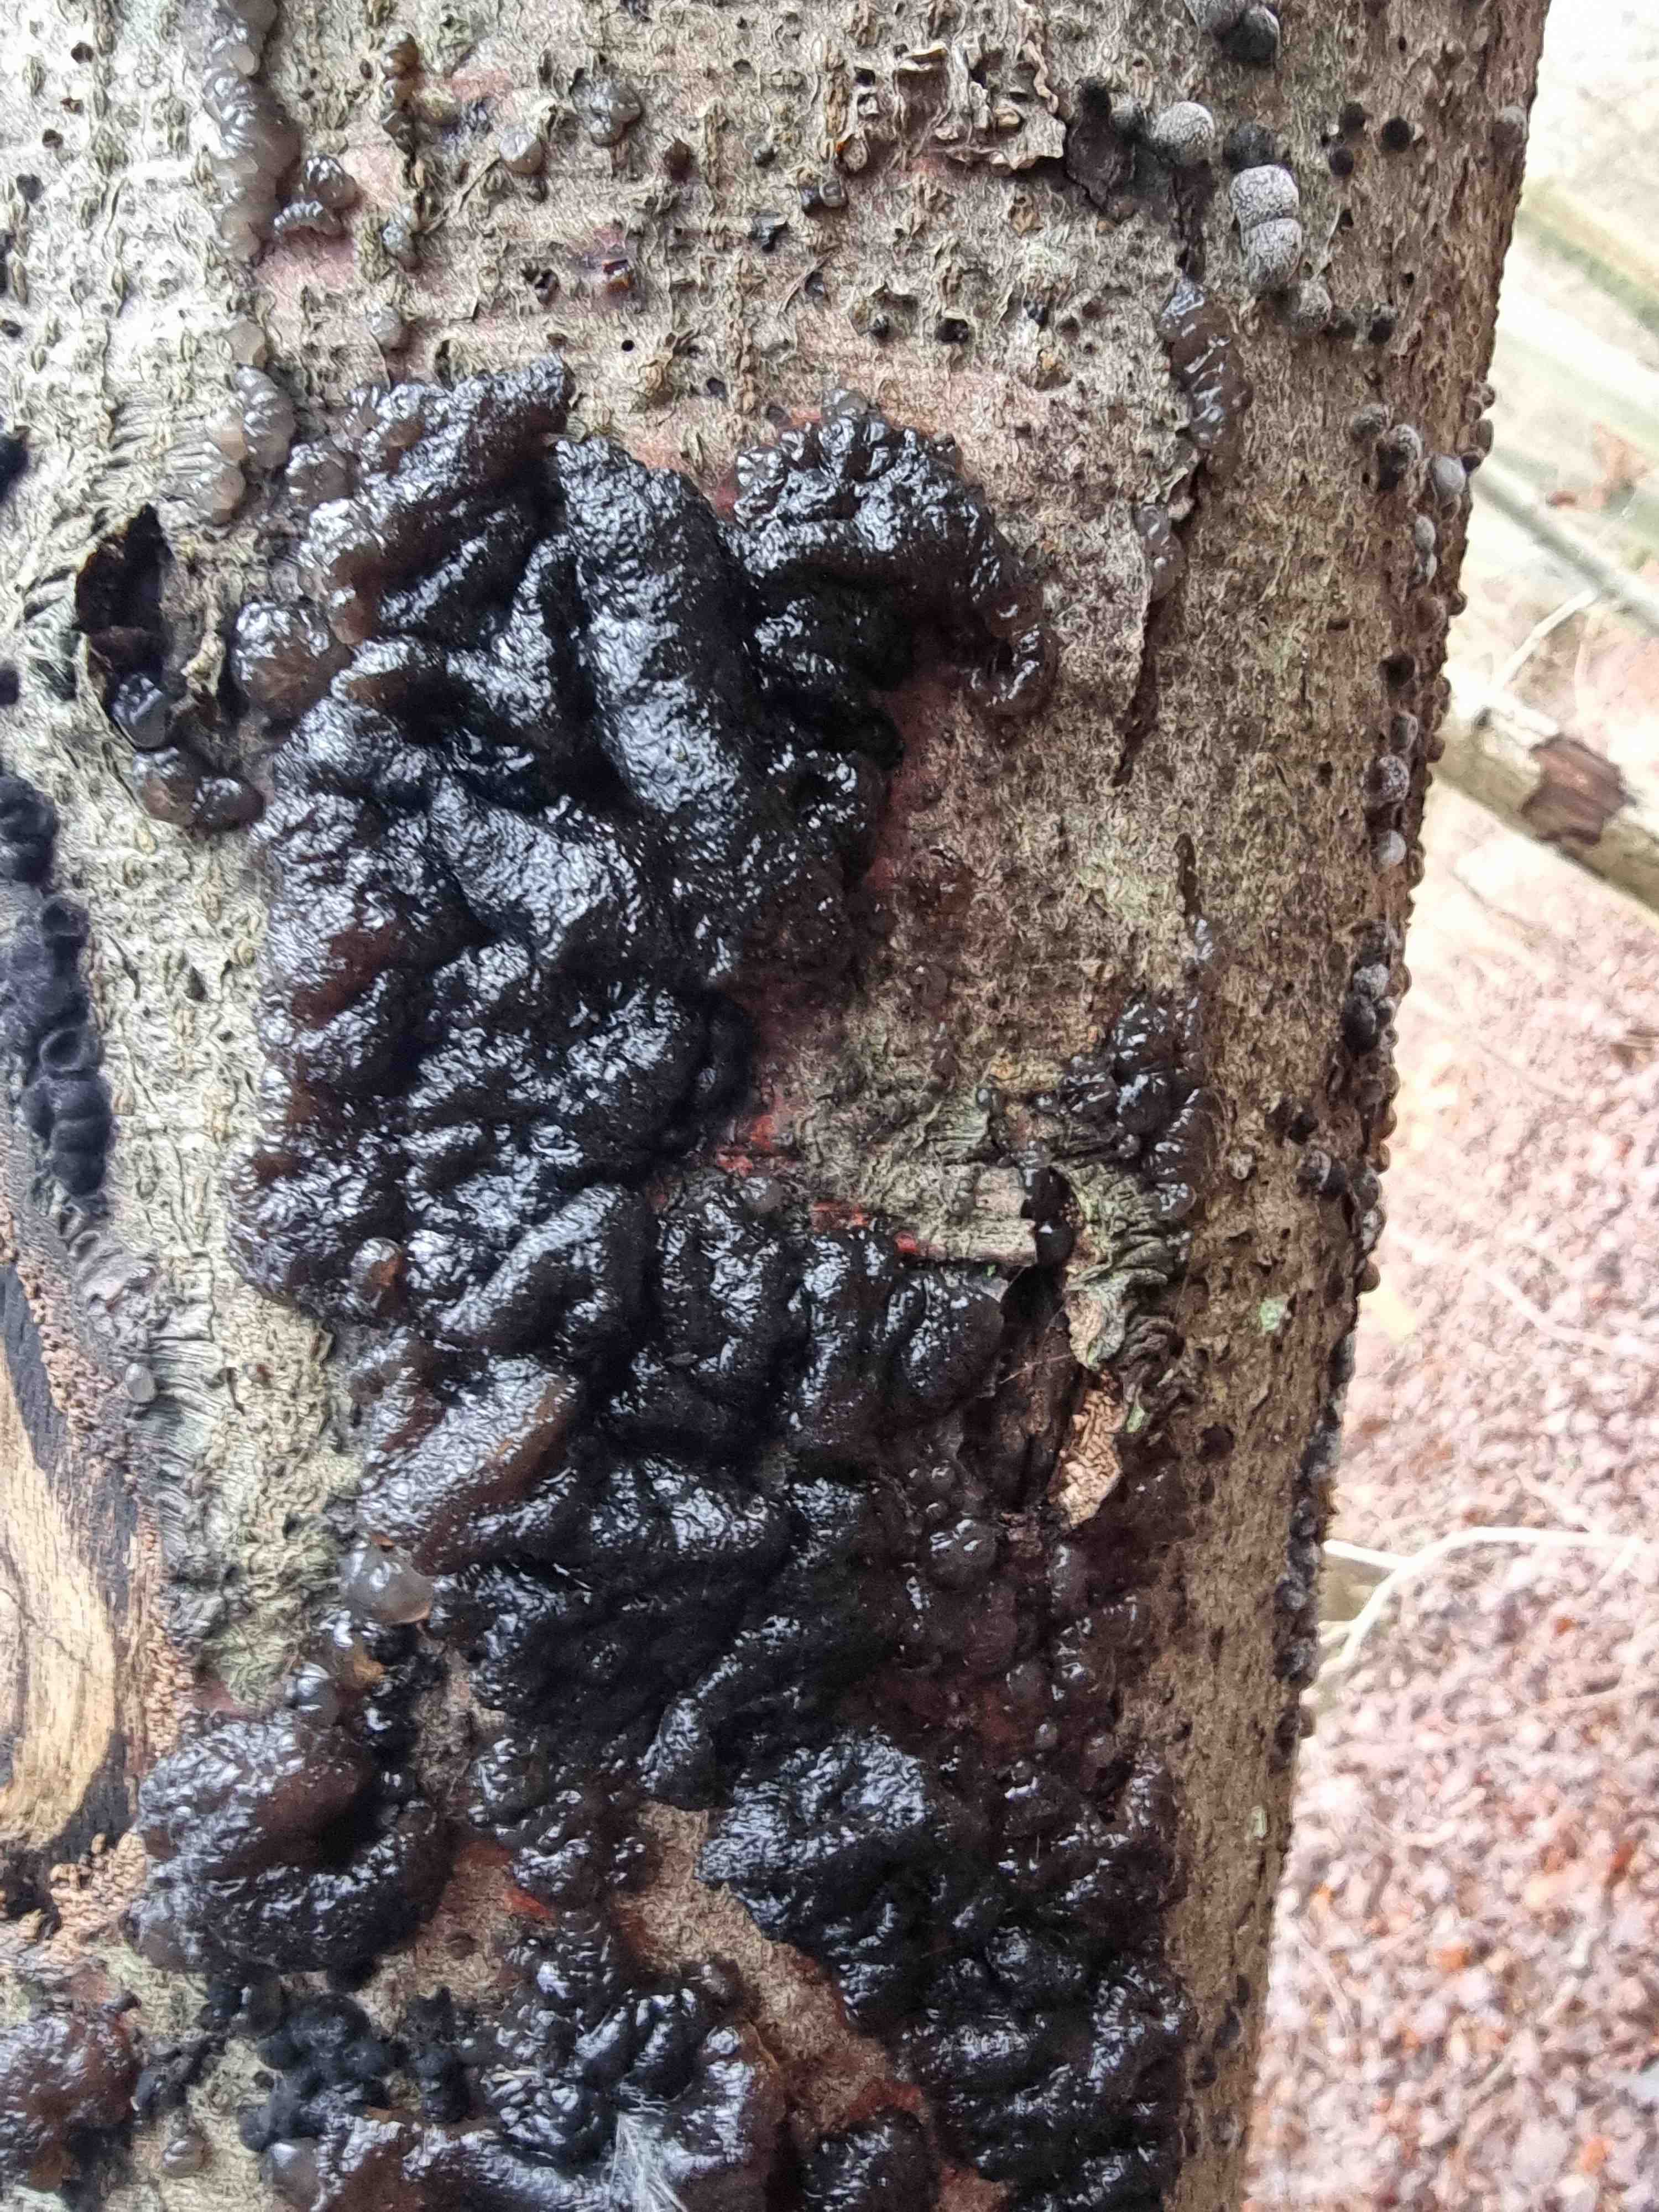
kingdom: Fungi
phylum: Basidiomycota
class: Agaricomycetes
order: Auriculariales
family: Auriculariaceae
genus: Exidia
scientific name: Exidia nigricans
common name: almindelig bævretop
